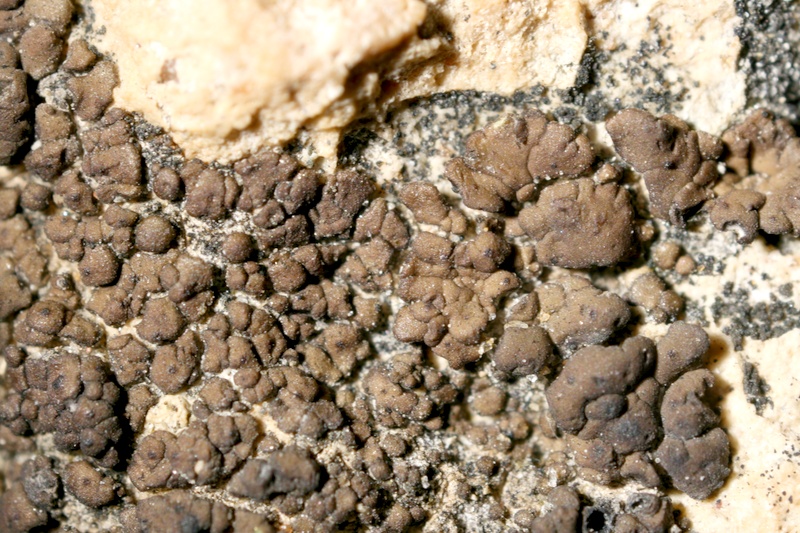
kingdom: Fungi
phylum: Ascomycota
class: Eurotiomycetes
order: Verrucariales
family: Verrucariaceae
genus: Placidium
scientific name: Placidium
